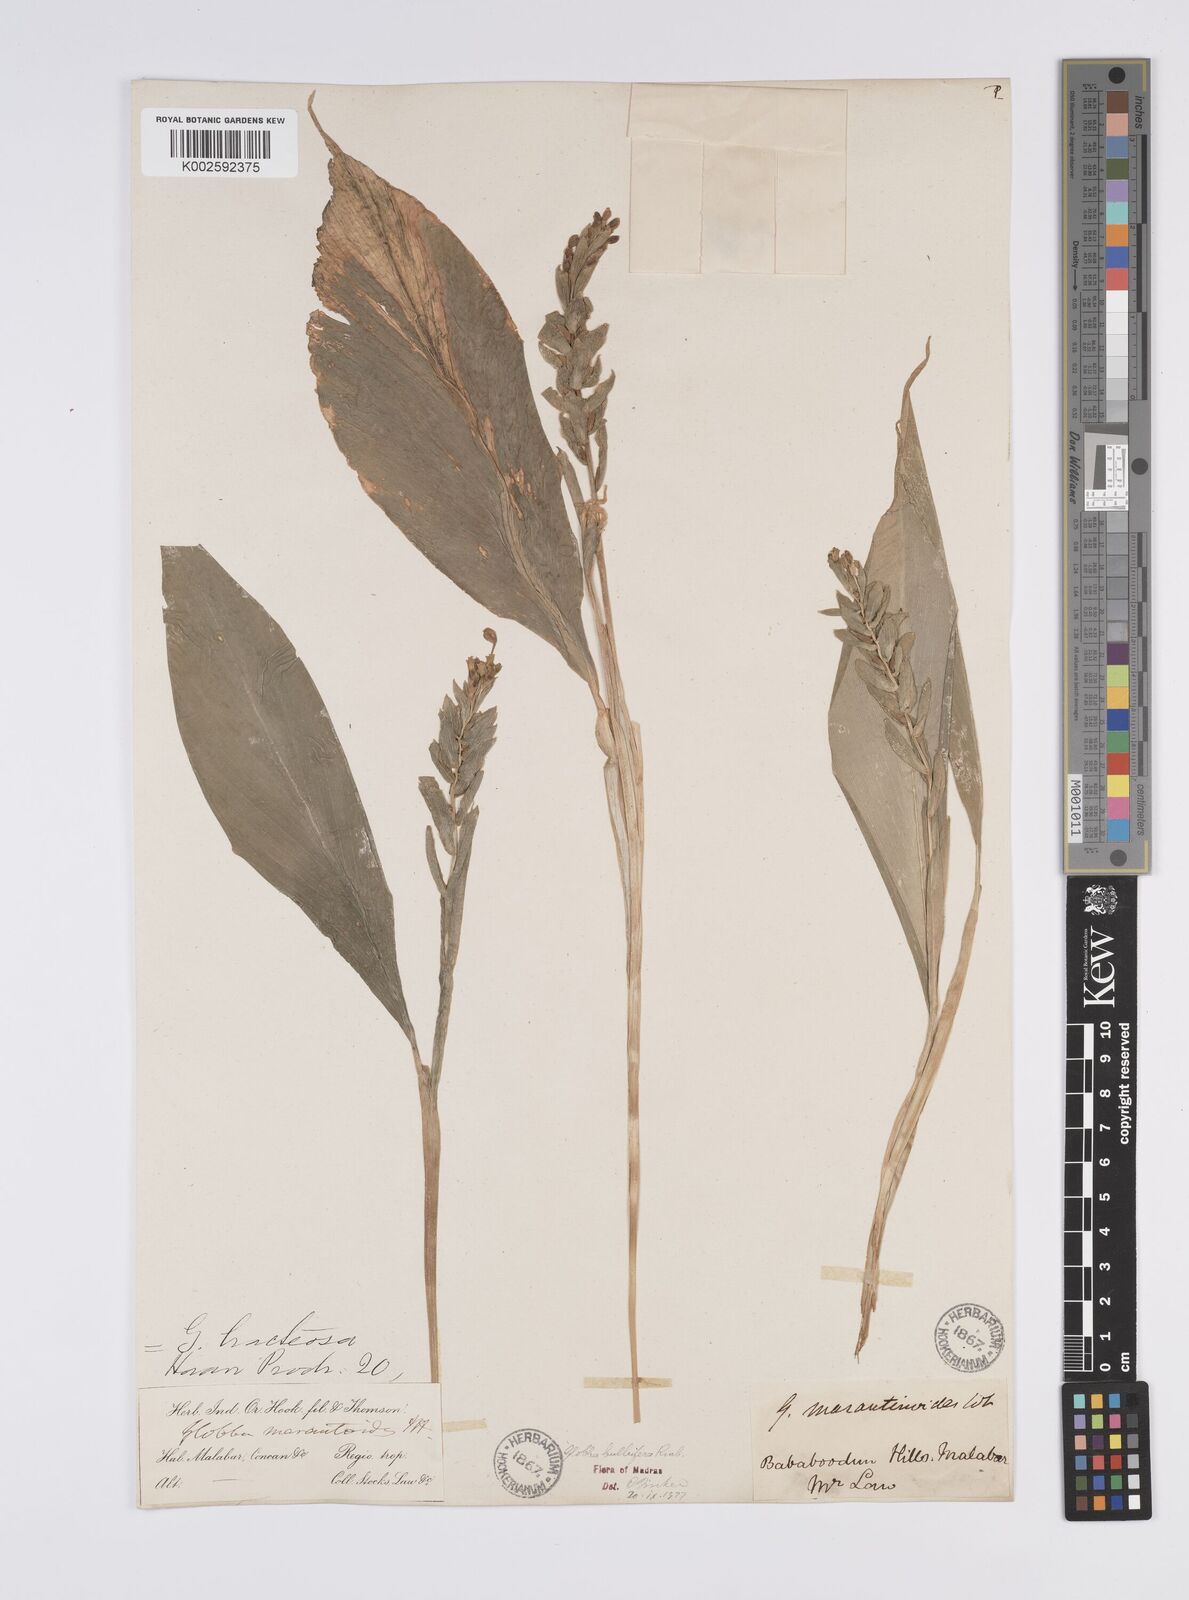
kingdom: Plantae
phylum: Tracheophyta
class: Liliopsida
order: Zingiberales
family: Zingiberaceae
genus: Globba
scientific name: Globba marantina
